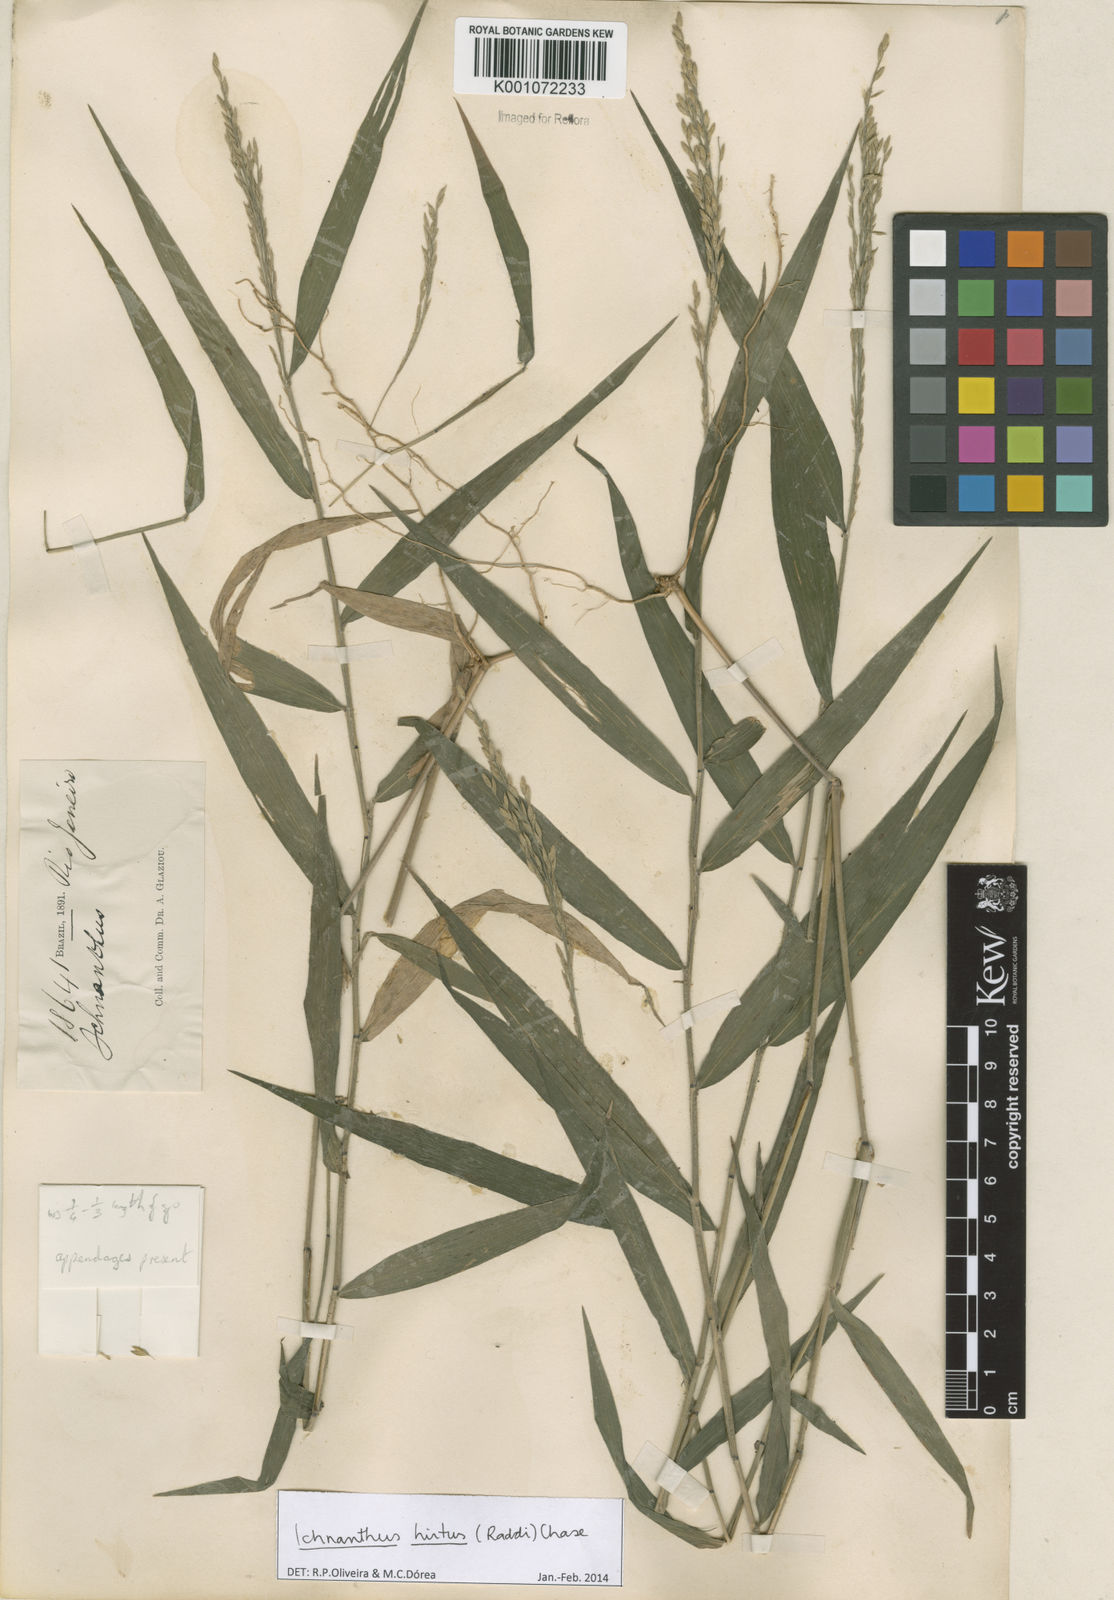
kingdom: Plantae
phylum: Tracheophyta
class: Liliopsida
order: Poales
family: Poaceae
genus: Ichnanthus
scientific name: Ichnanthus hirtus
